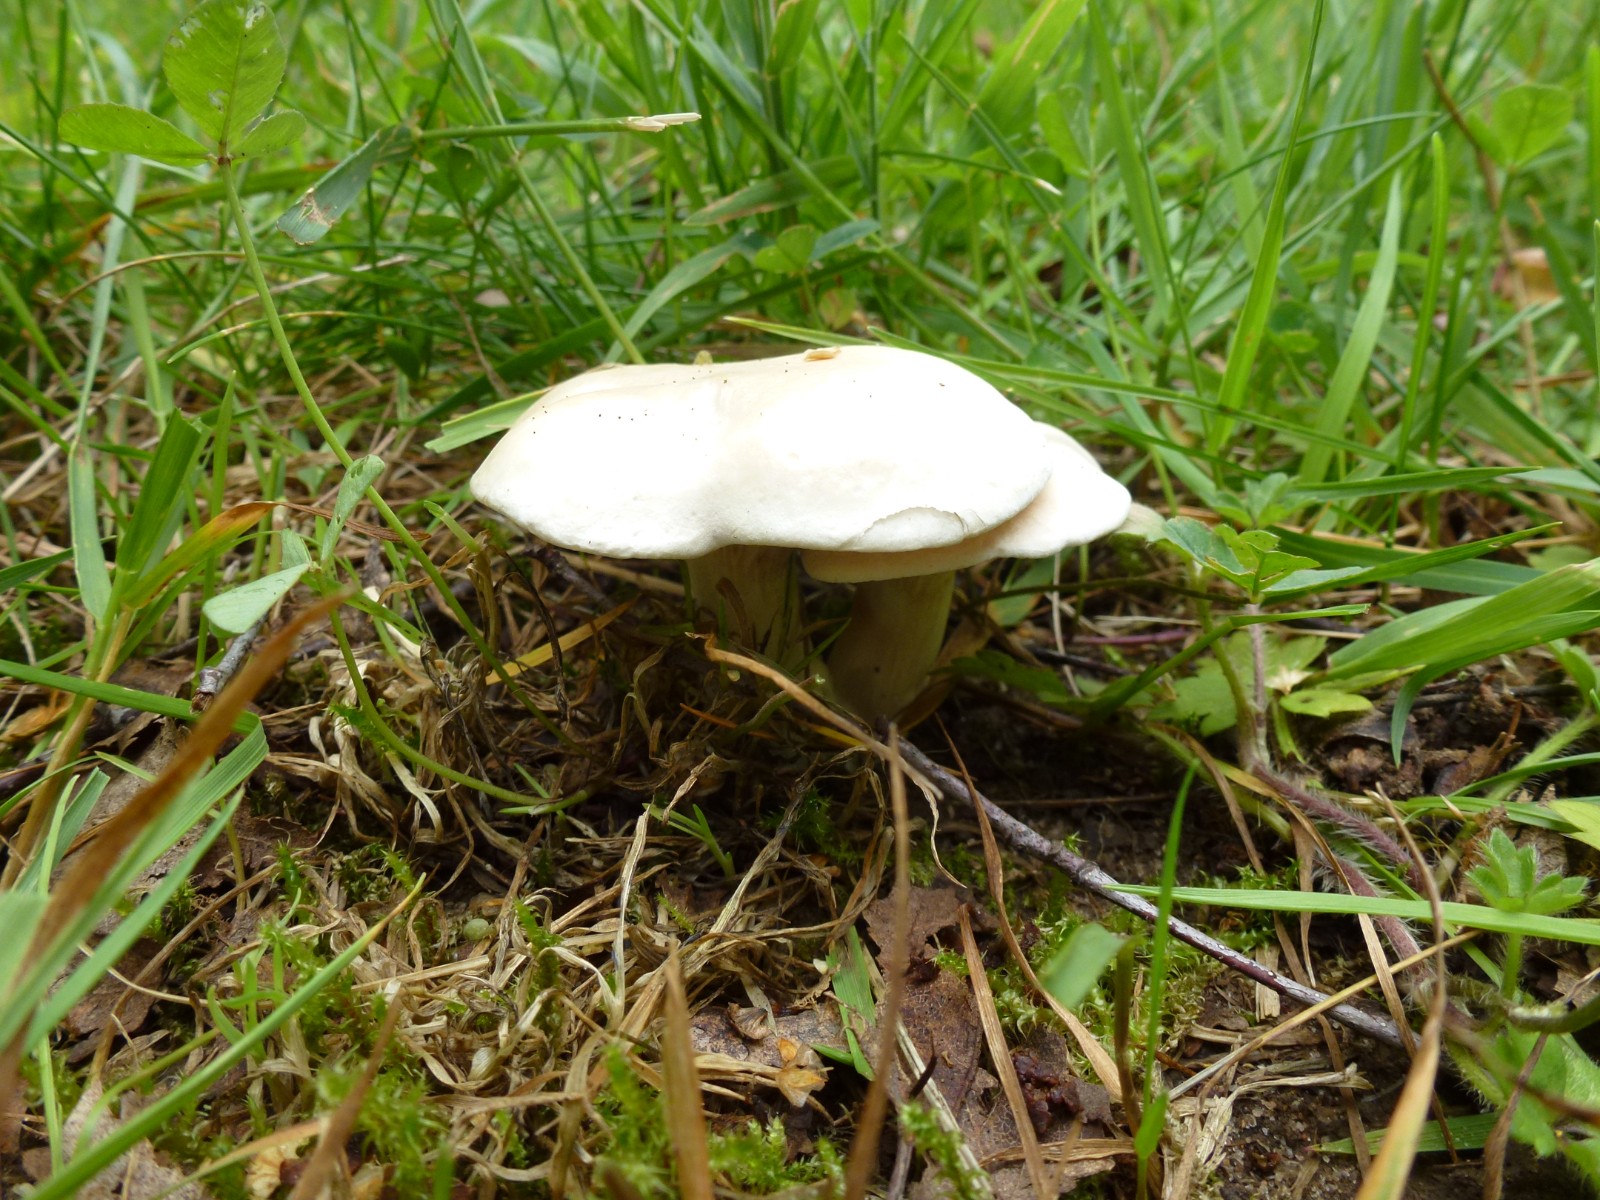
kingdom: Fungi
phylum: Basidiomycota
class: Agaricomycetes
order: Agaricales
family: Entolomataceae
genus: Clitopilus
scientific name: Clitopilus prunulus
